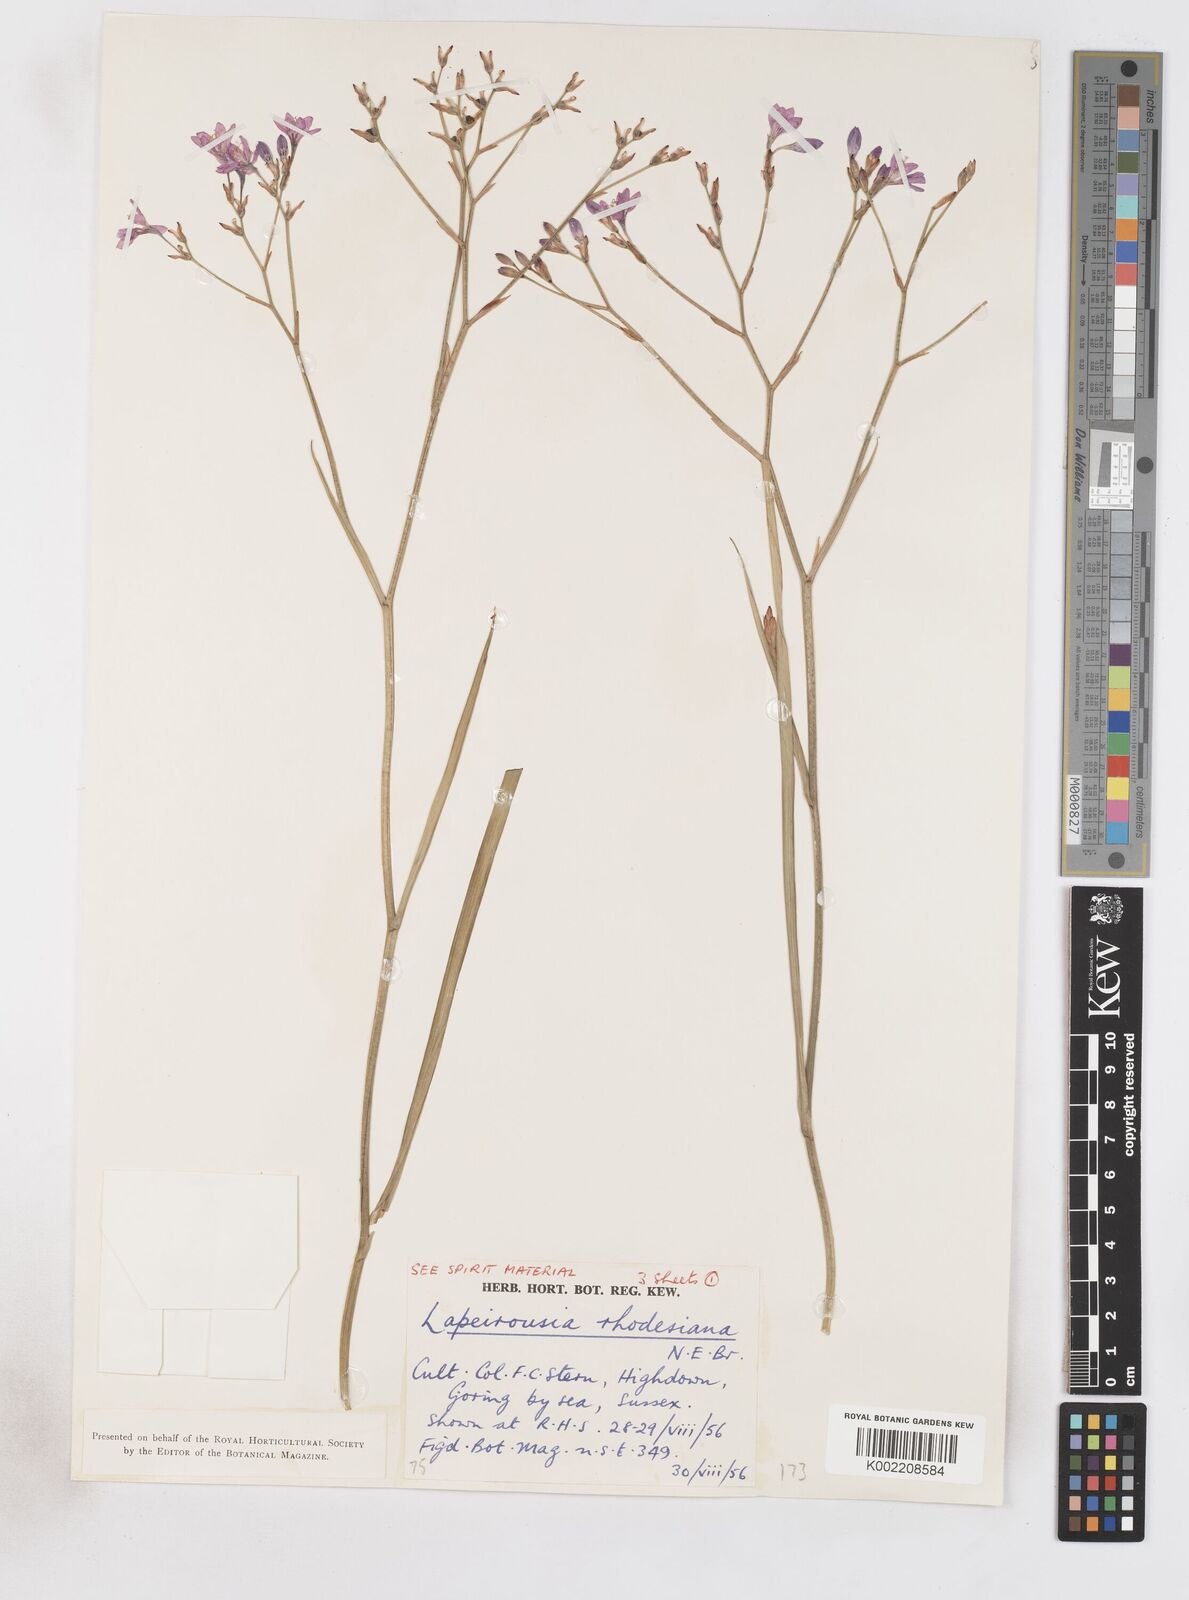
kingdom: Plantae
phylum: Tracheophyta
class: Liliopsida
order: Asparagales
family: Iridaceae
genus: Lapeirousia
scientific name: Lapeirousia
